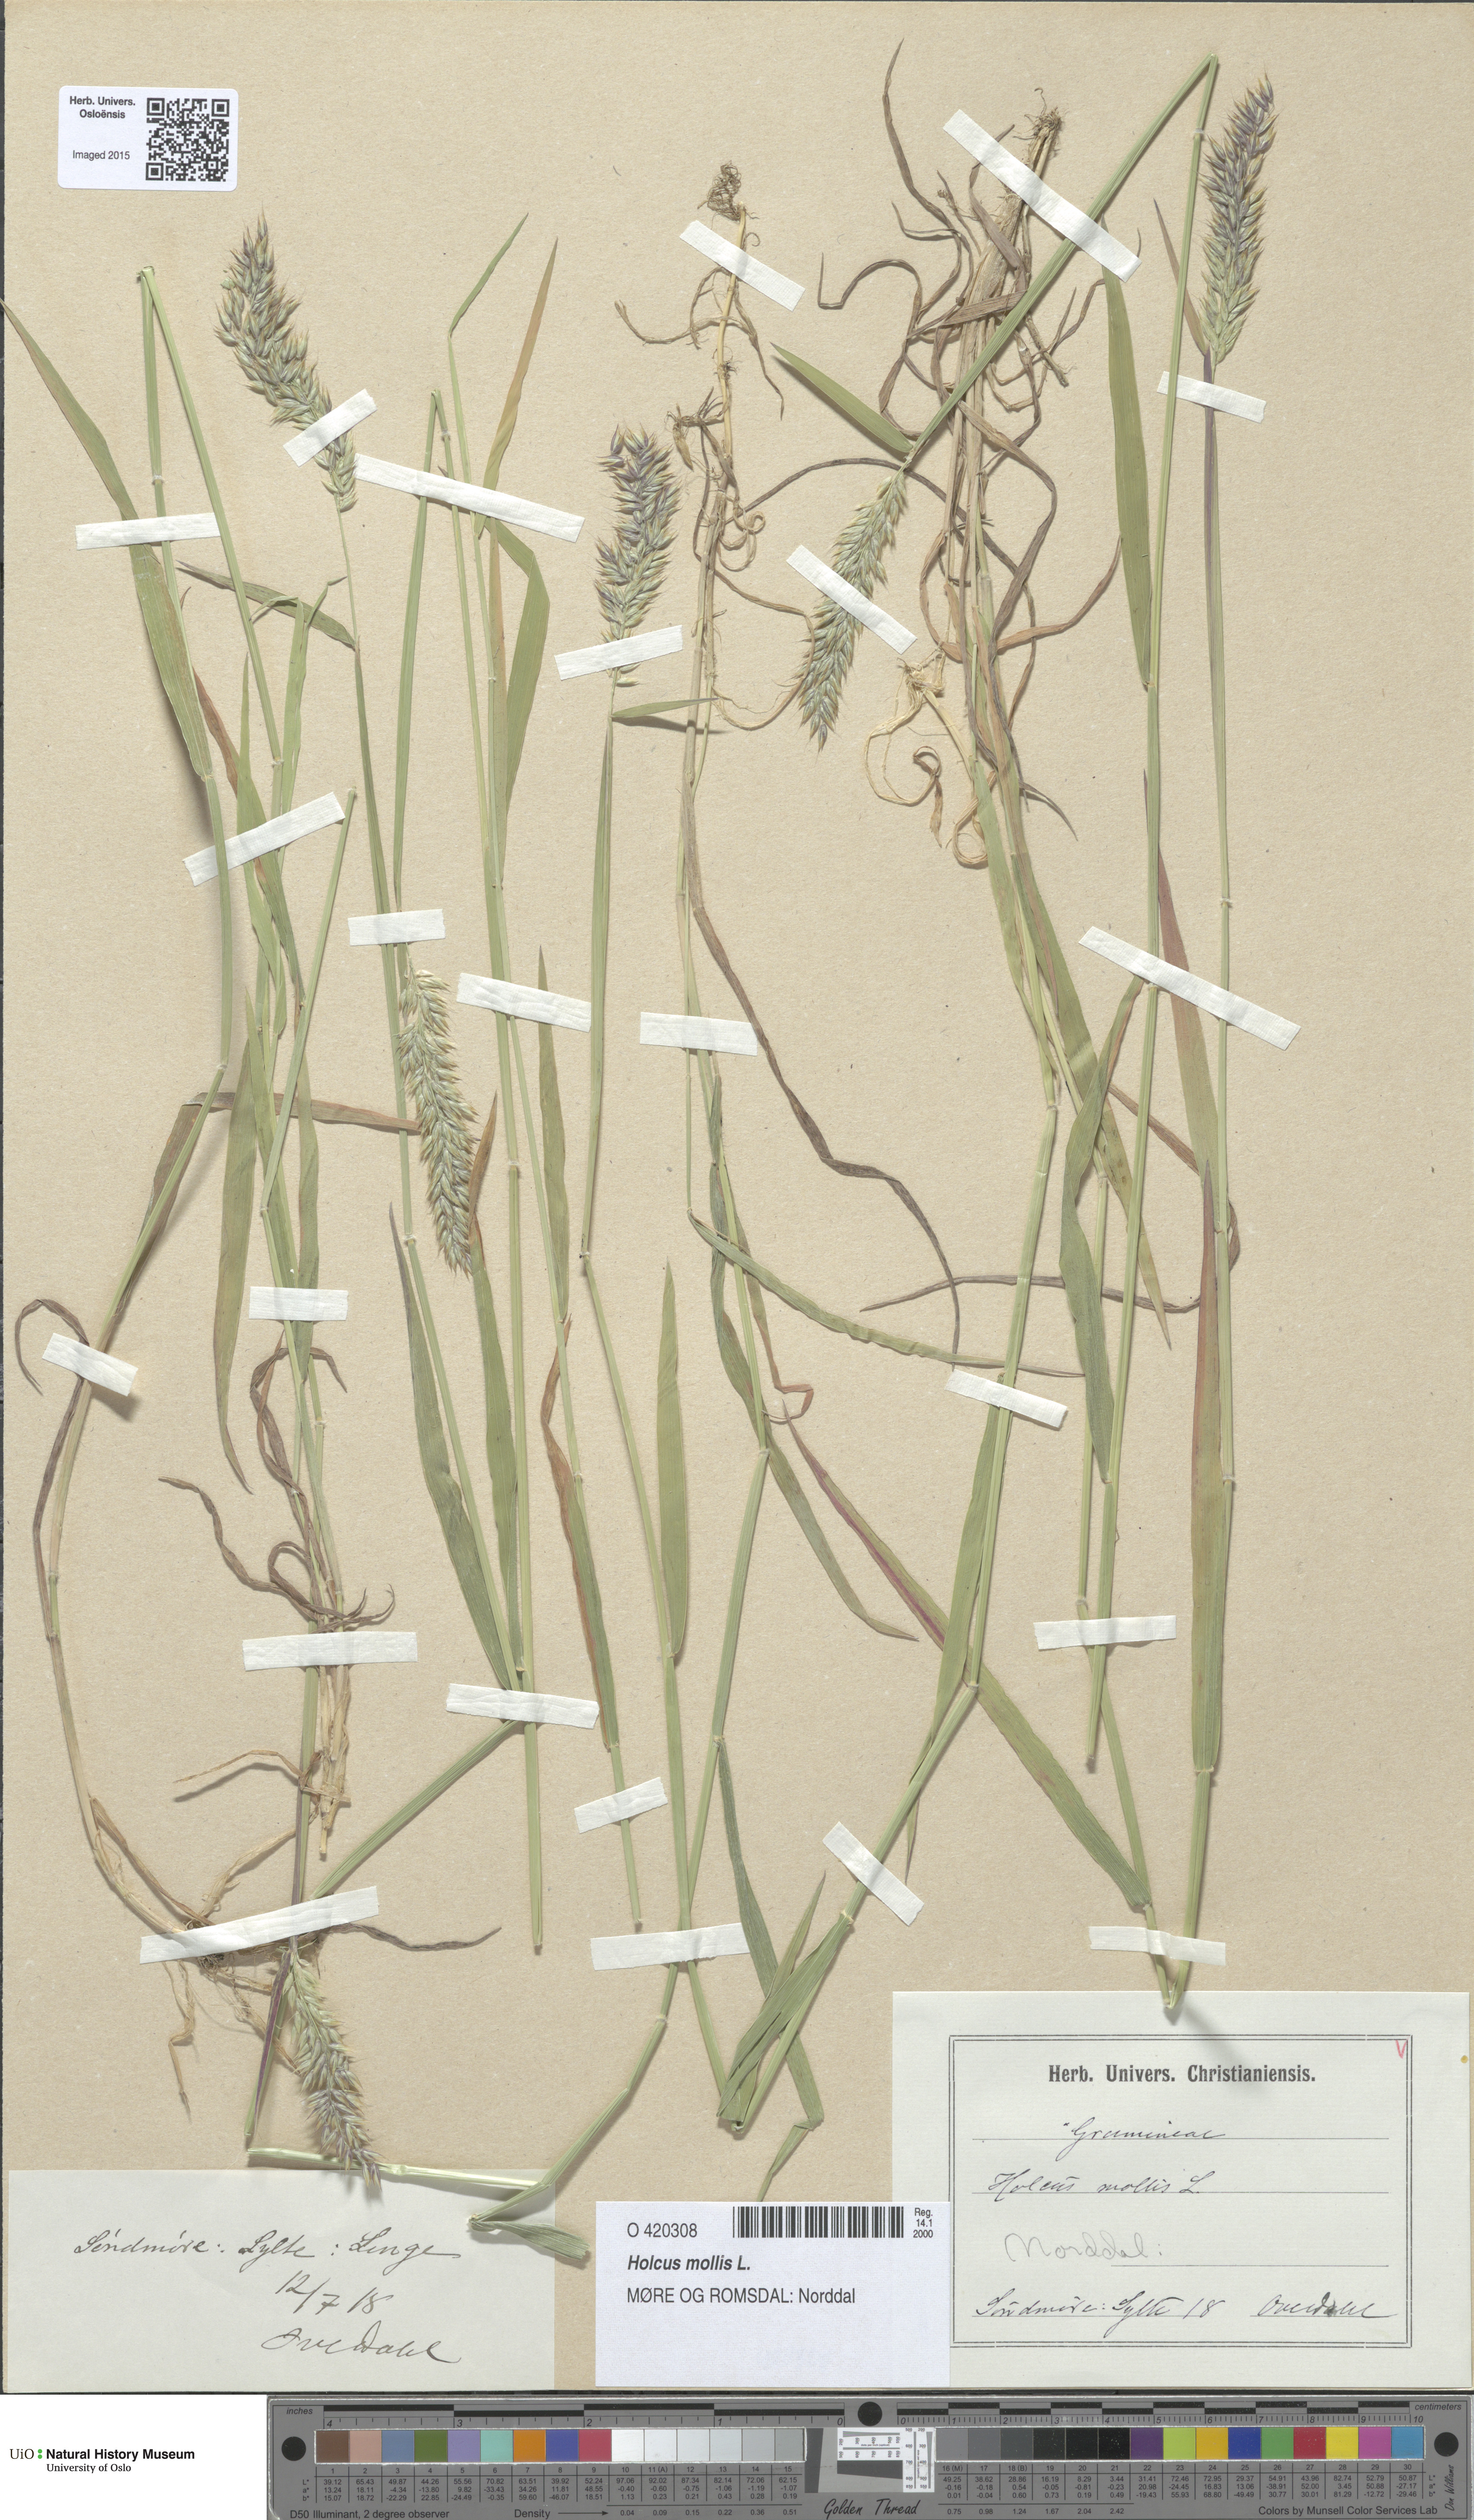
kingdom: Plantae
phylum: Tracheophyta
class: Liliopsida
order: Poales
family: Poaceae
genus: Holcus
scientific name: Holcus mollis
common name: Creeping velvetgrass
